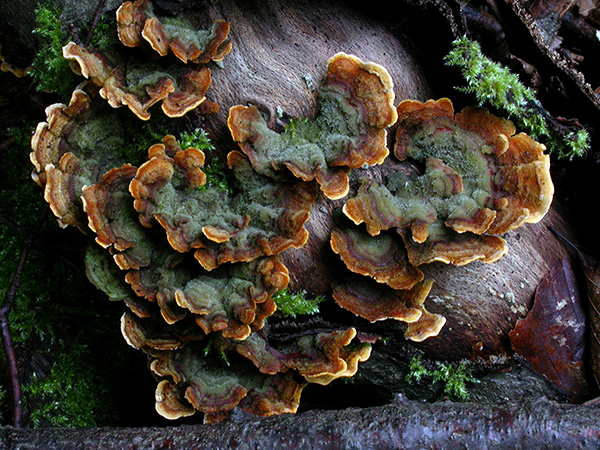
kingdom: Fungi
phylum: Basidiomycota
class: Agaricomycetes
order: Russulales
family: Stereaceae
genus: Stereum
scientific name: Stereum hirsutum
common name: håret lædersvamp
